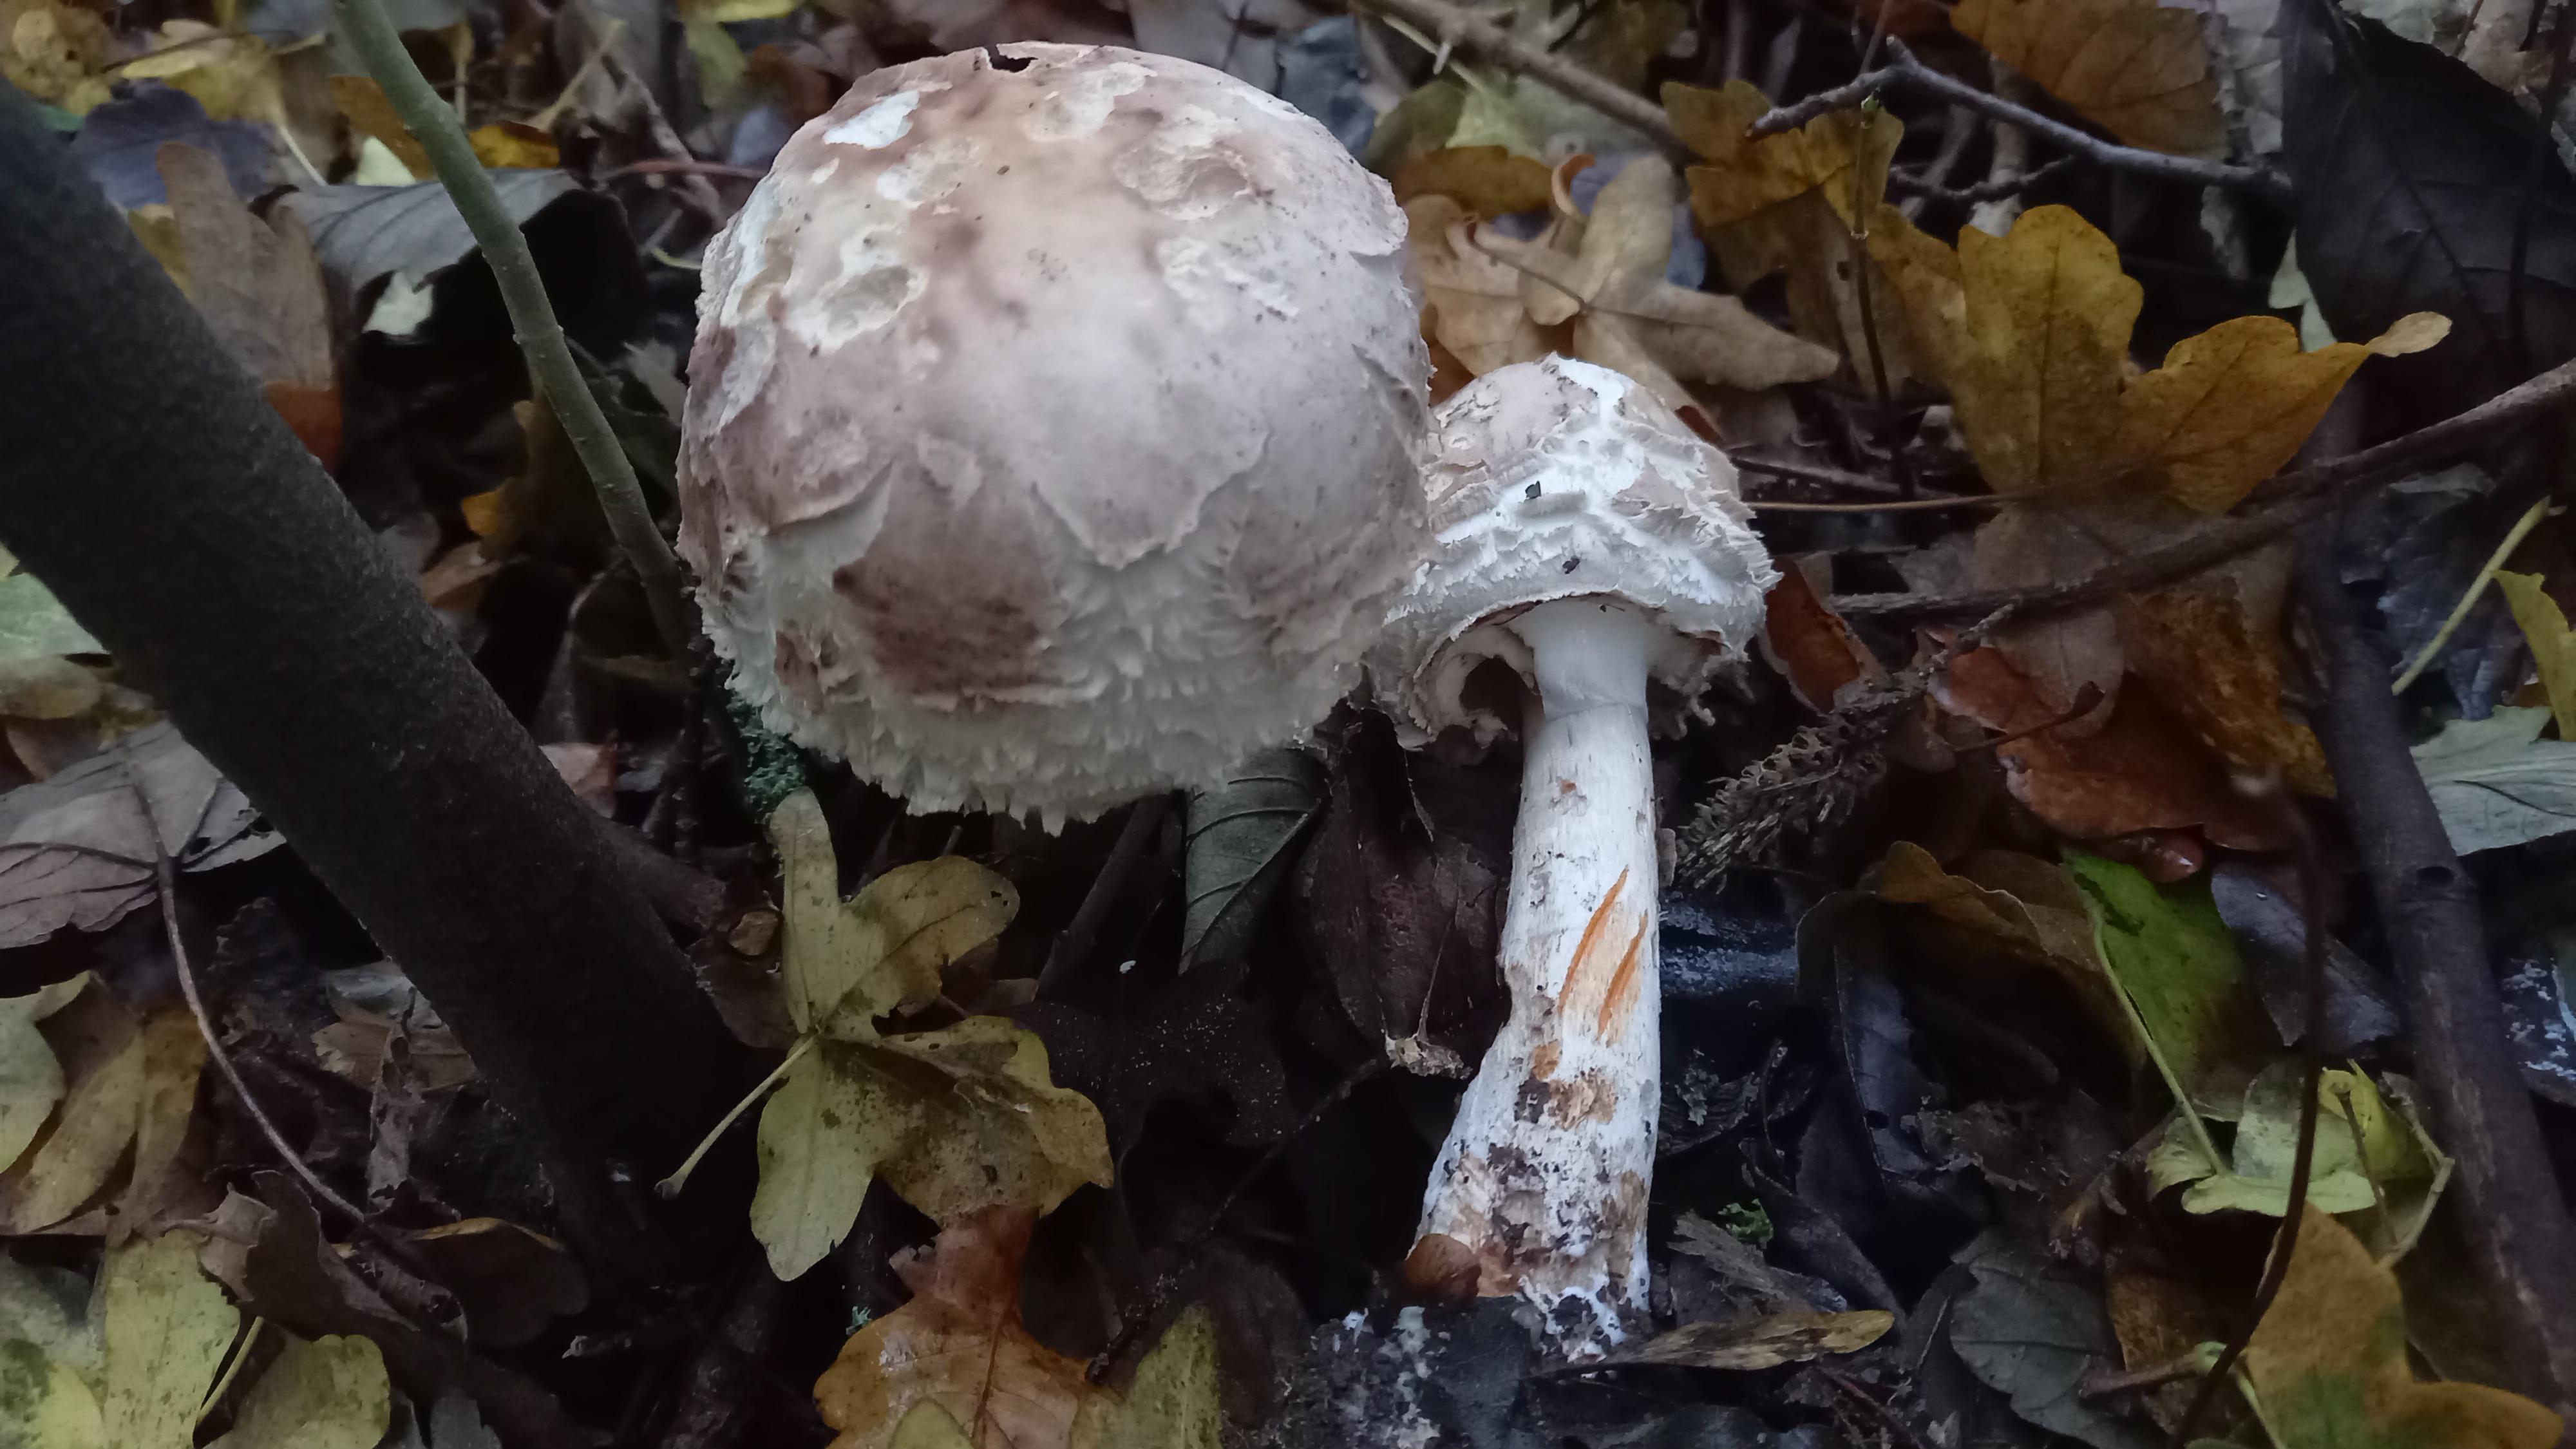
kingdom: Fungi
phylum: Basidiomycota
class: Agaricomycetes
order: Agaricales
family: Agaricaceae
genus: Chlorophyllum
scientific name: Chlorophyllum brunneum
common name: giftig rabarberhat
